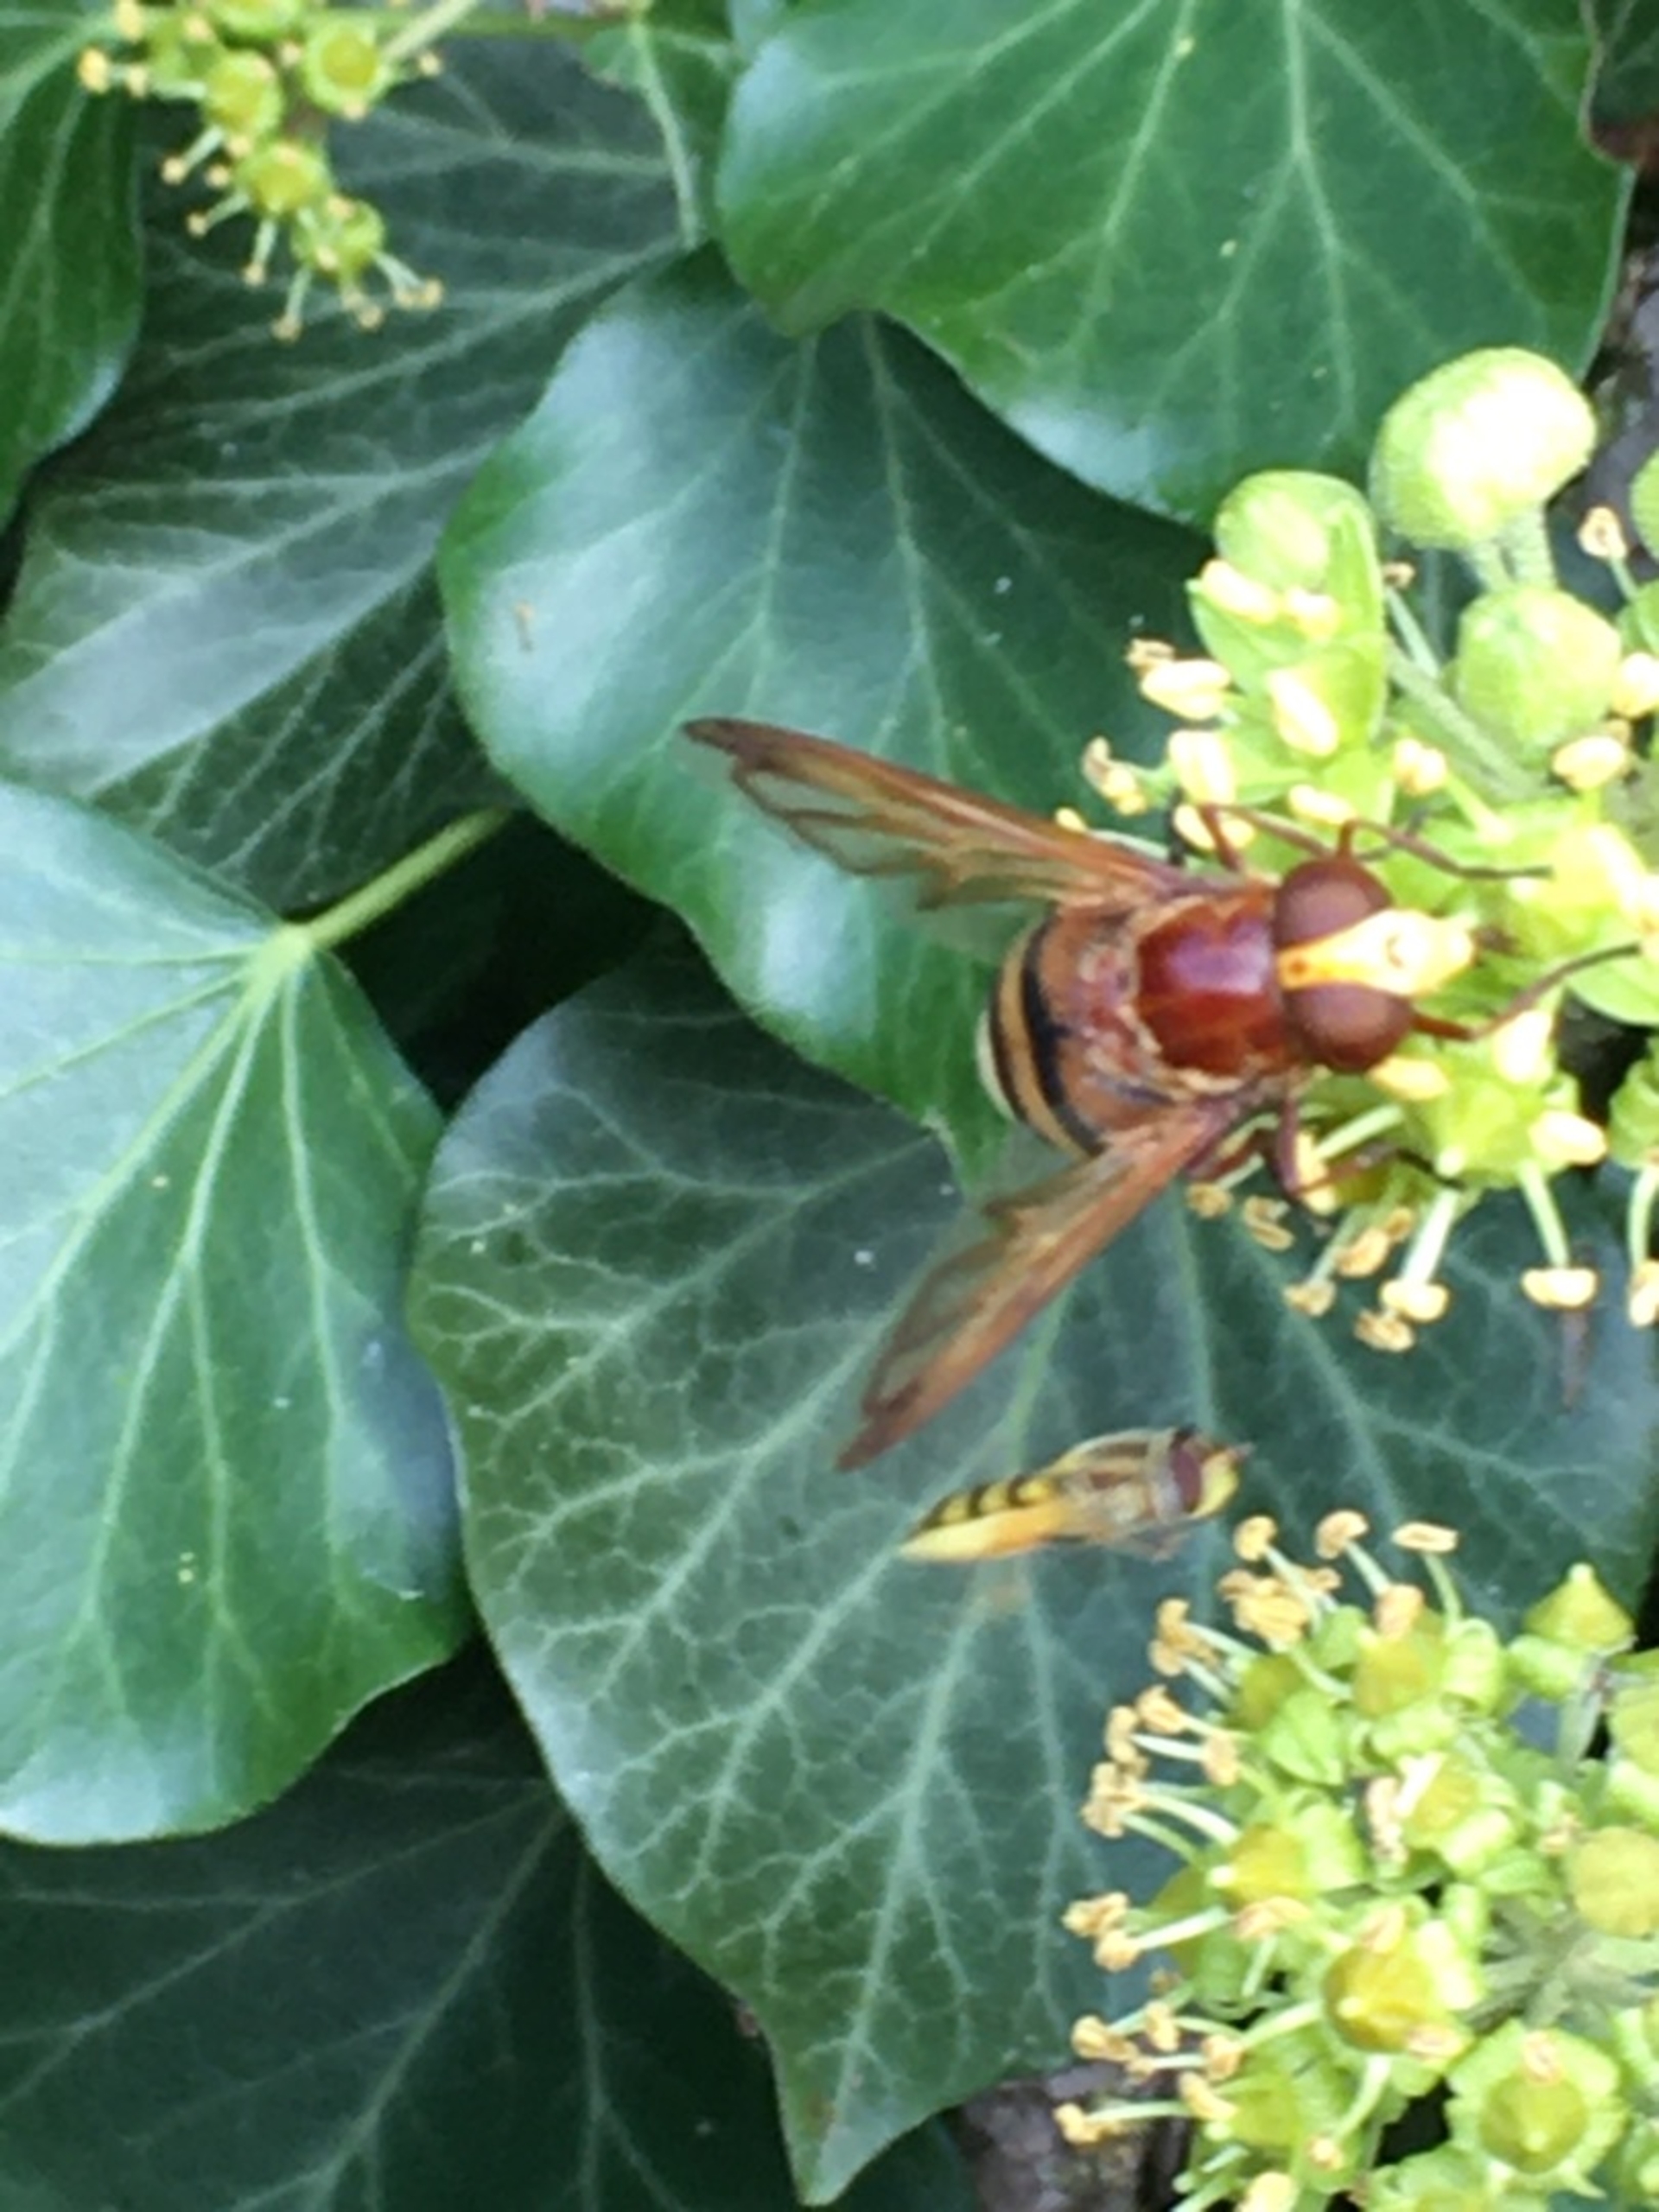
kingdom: Animalia
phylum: Arthropoda
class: Insecta
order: Diptera
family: Syrphidae
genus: Volucella
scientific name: Volucella zonaria
